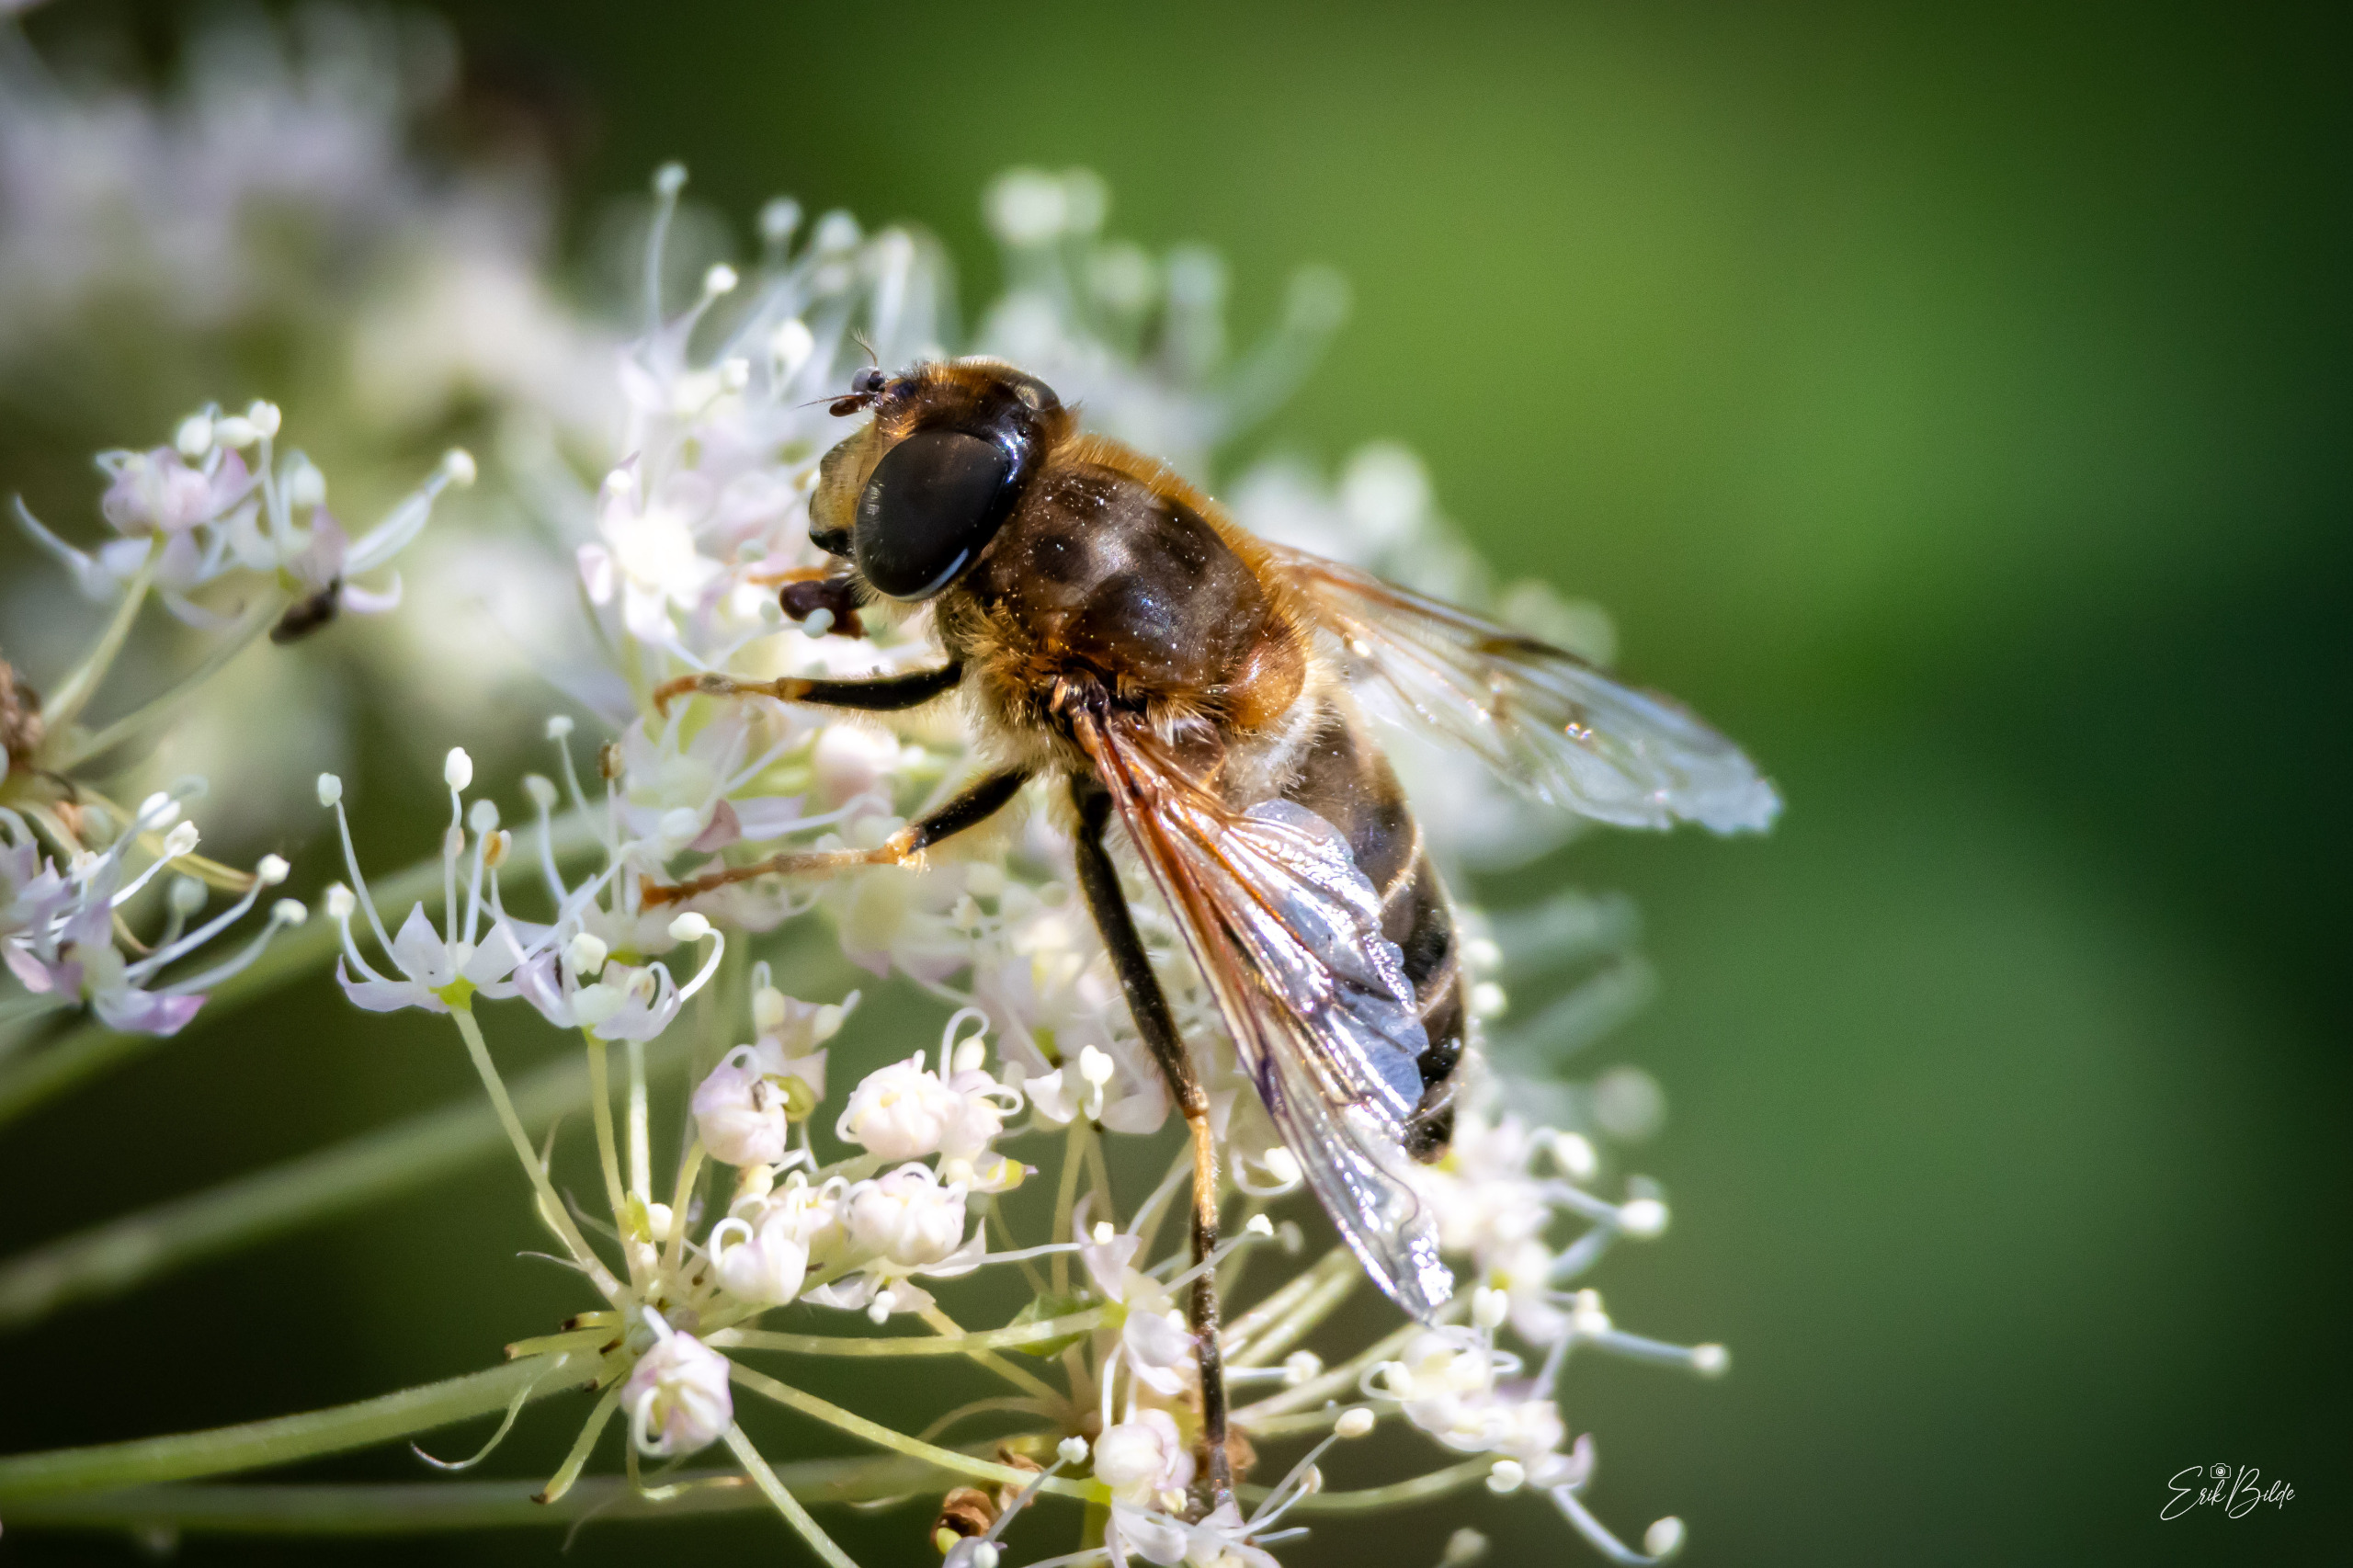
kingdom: Animalia
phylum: Arthropoda
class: Insecta
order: Diptera
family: Syrphidae
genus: Eristalis
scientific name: Eristalis pertinax
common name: Gulfodet dyndflue
